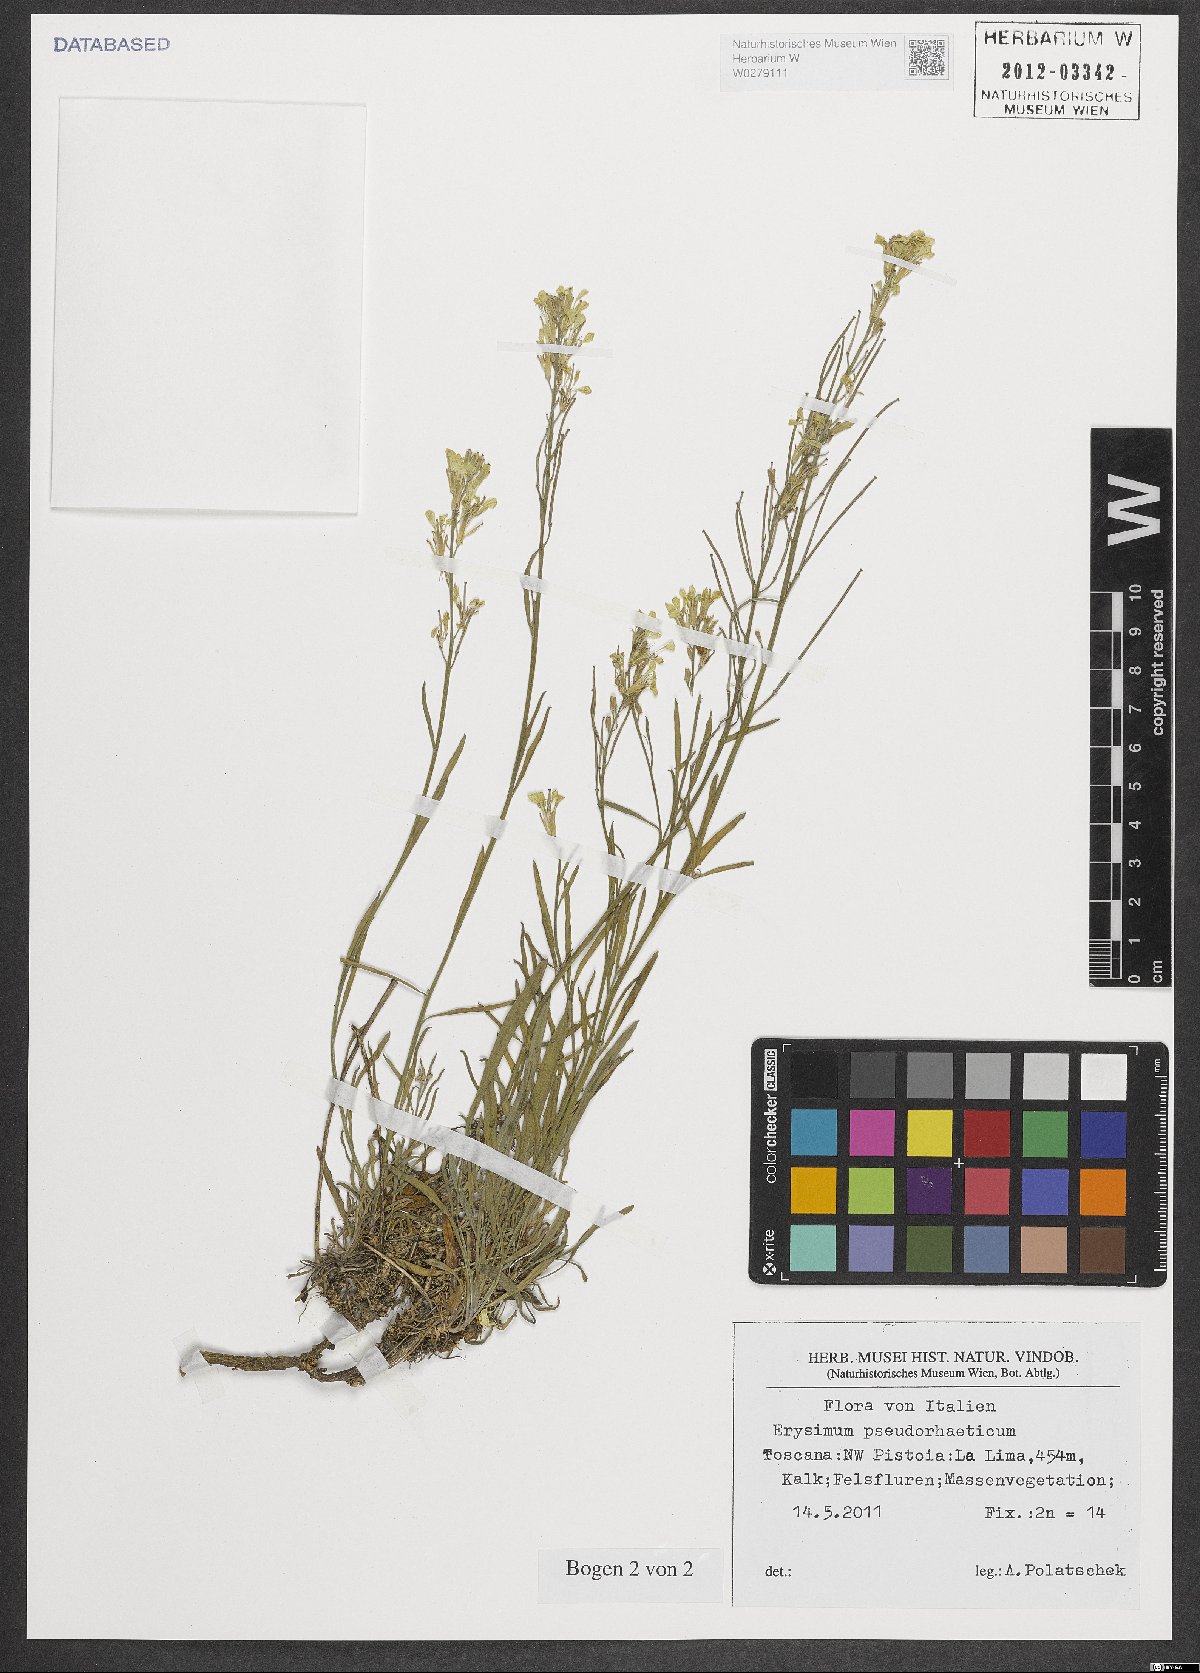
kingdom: Plantae
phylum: Tracheophyta
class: Magnoliopsida
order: Brassicales
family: Brassicaceae
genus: Erysimum
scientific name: Erysimum pseudorhaeticum
